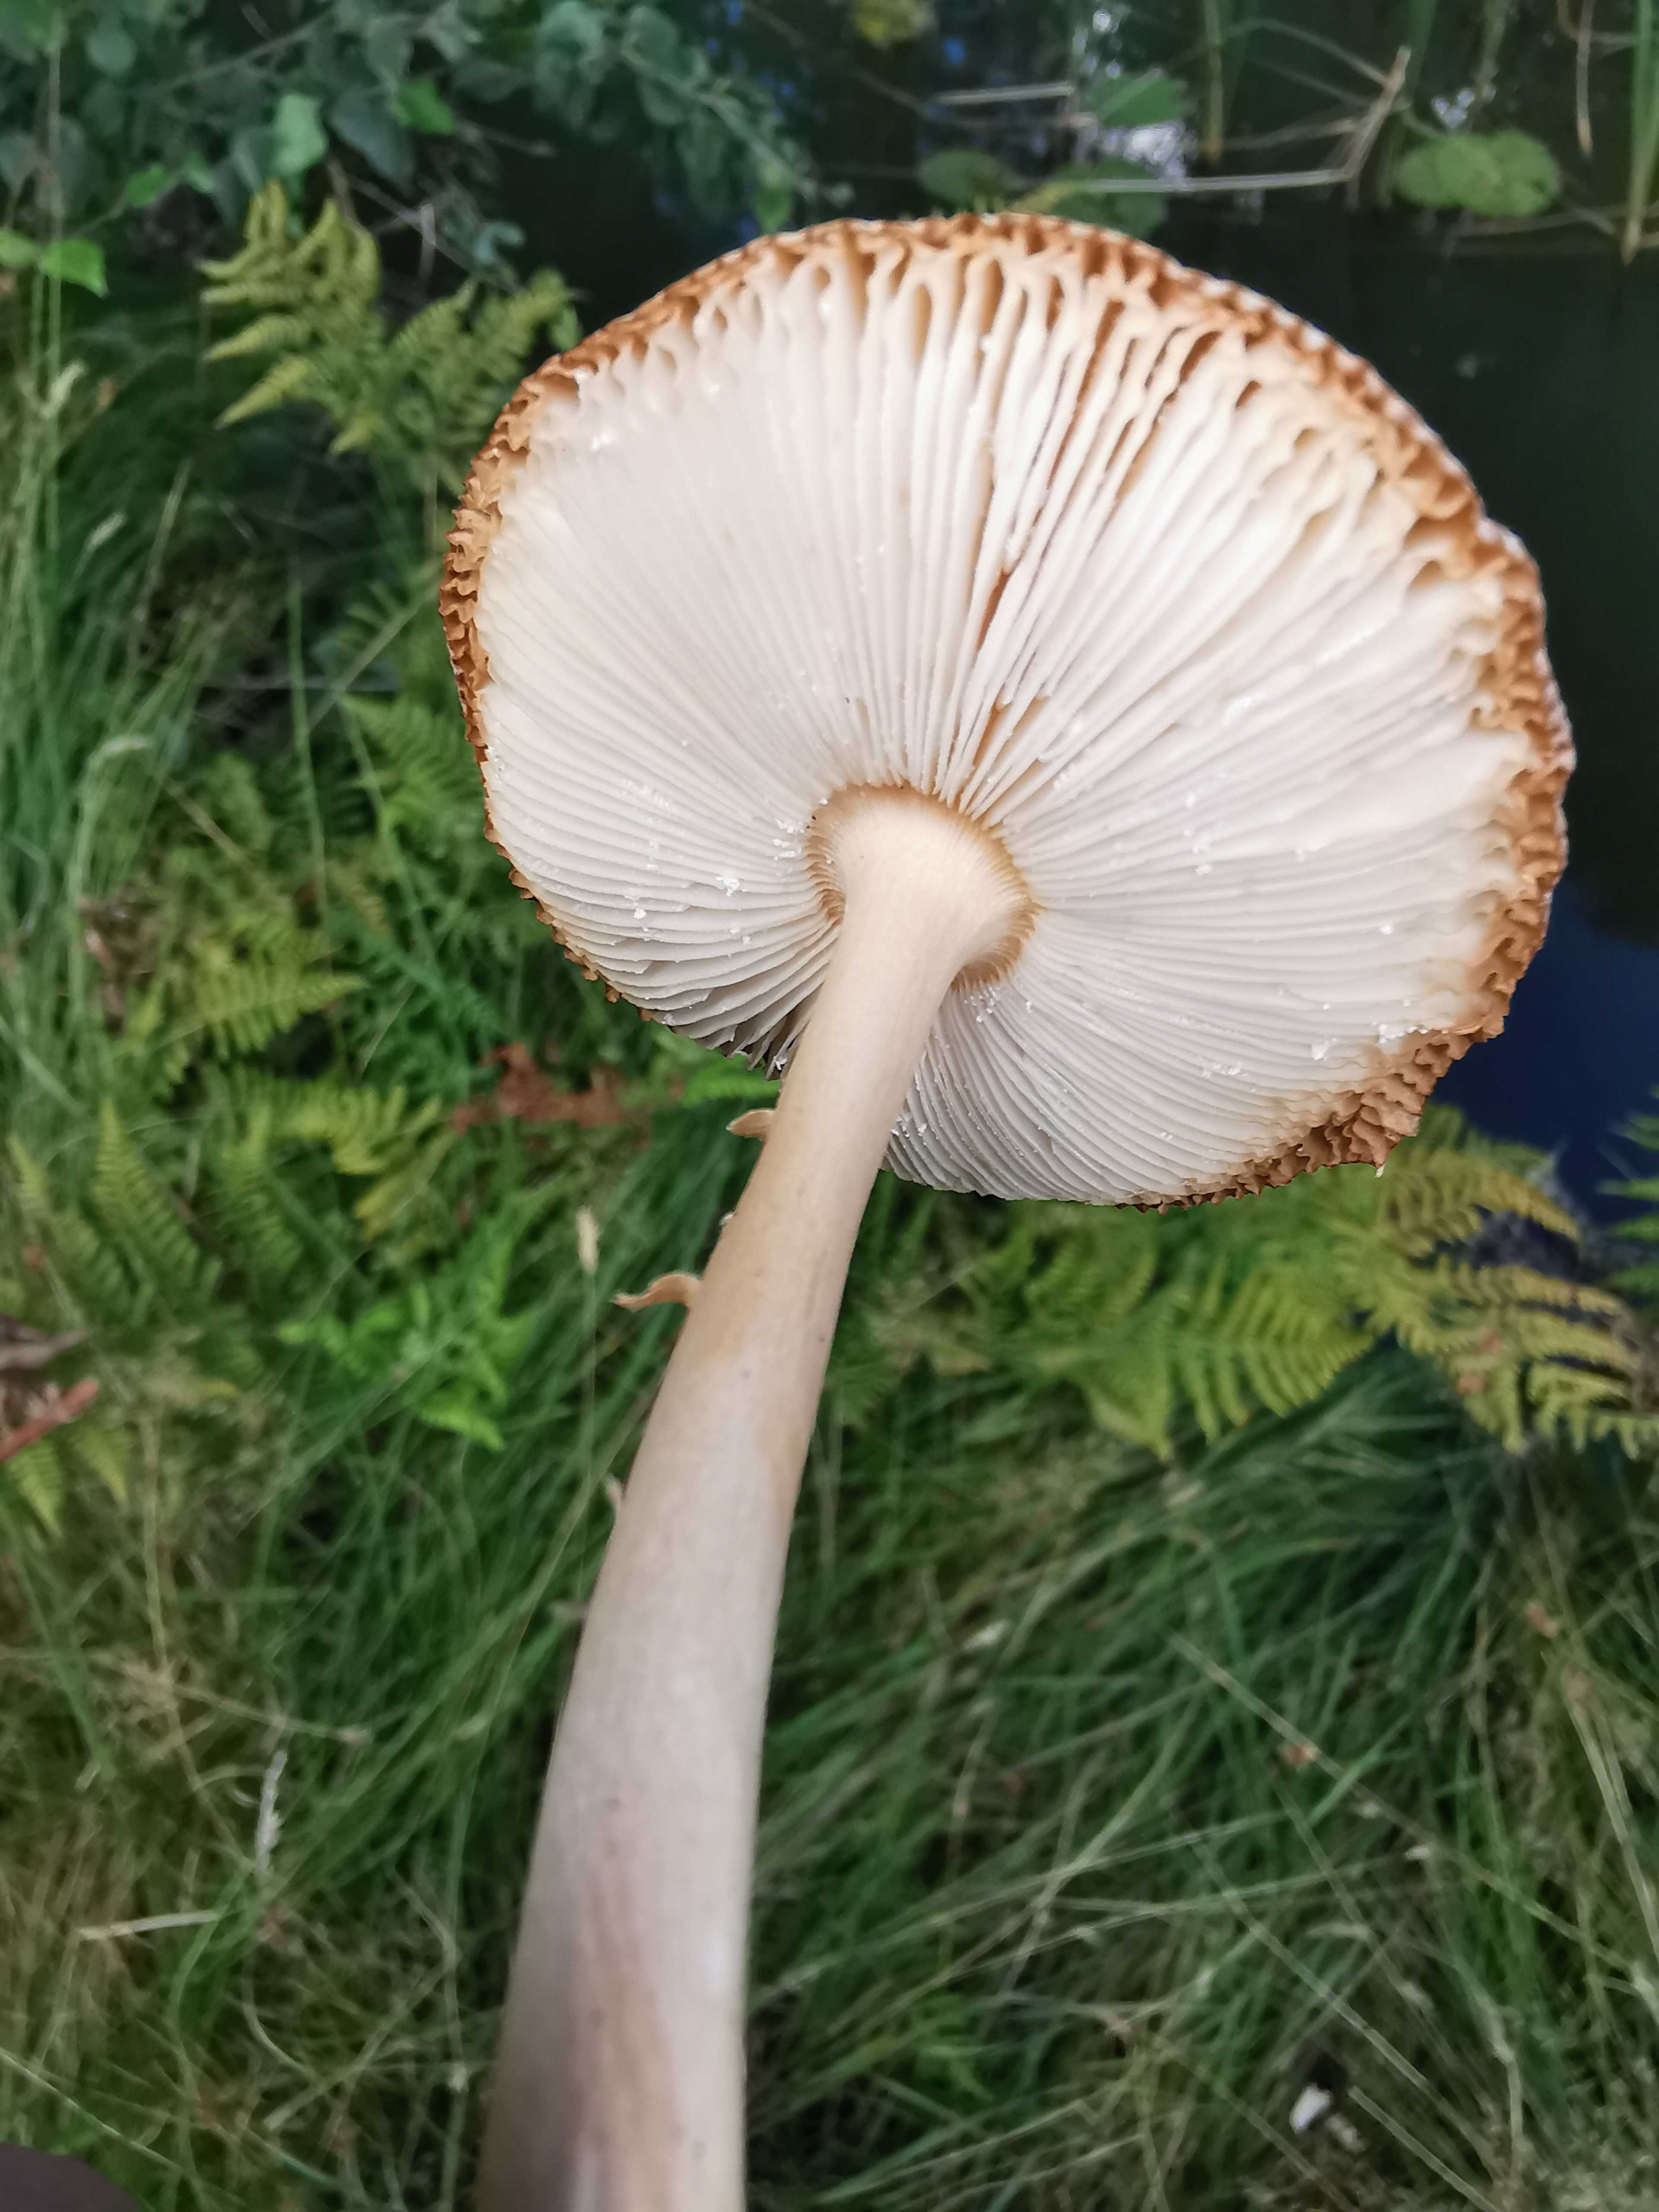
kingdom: Fungi
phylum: Basidiomycota
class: Agaricomycetes
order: Agaricales
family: Amanitaceae
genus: Amanita
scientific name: Amanita fulva
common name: brun kam-fluesvamp
